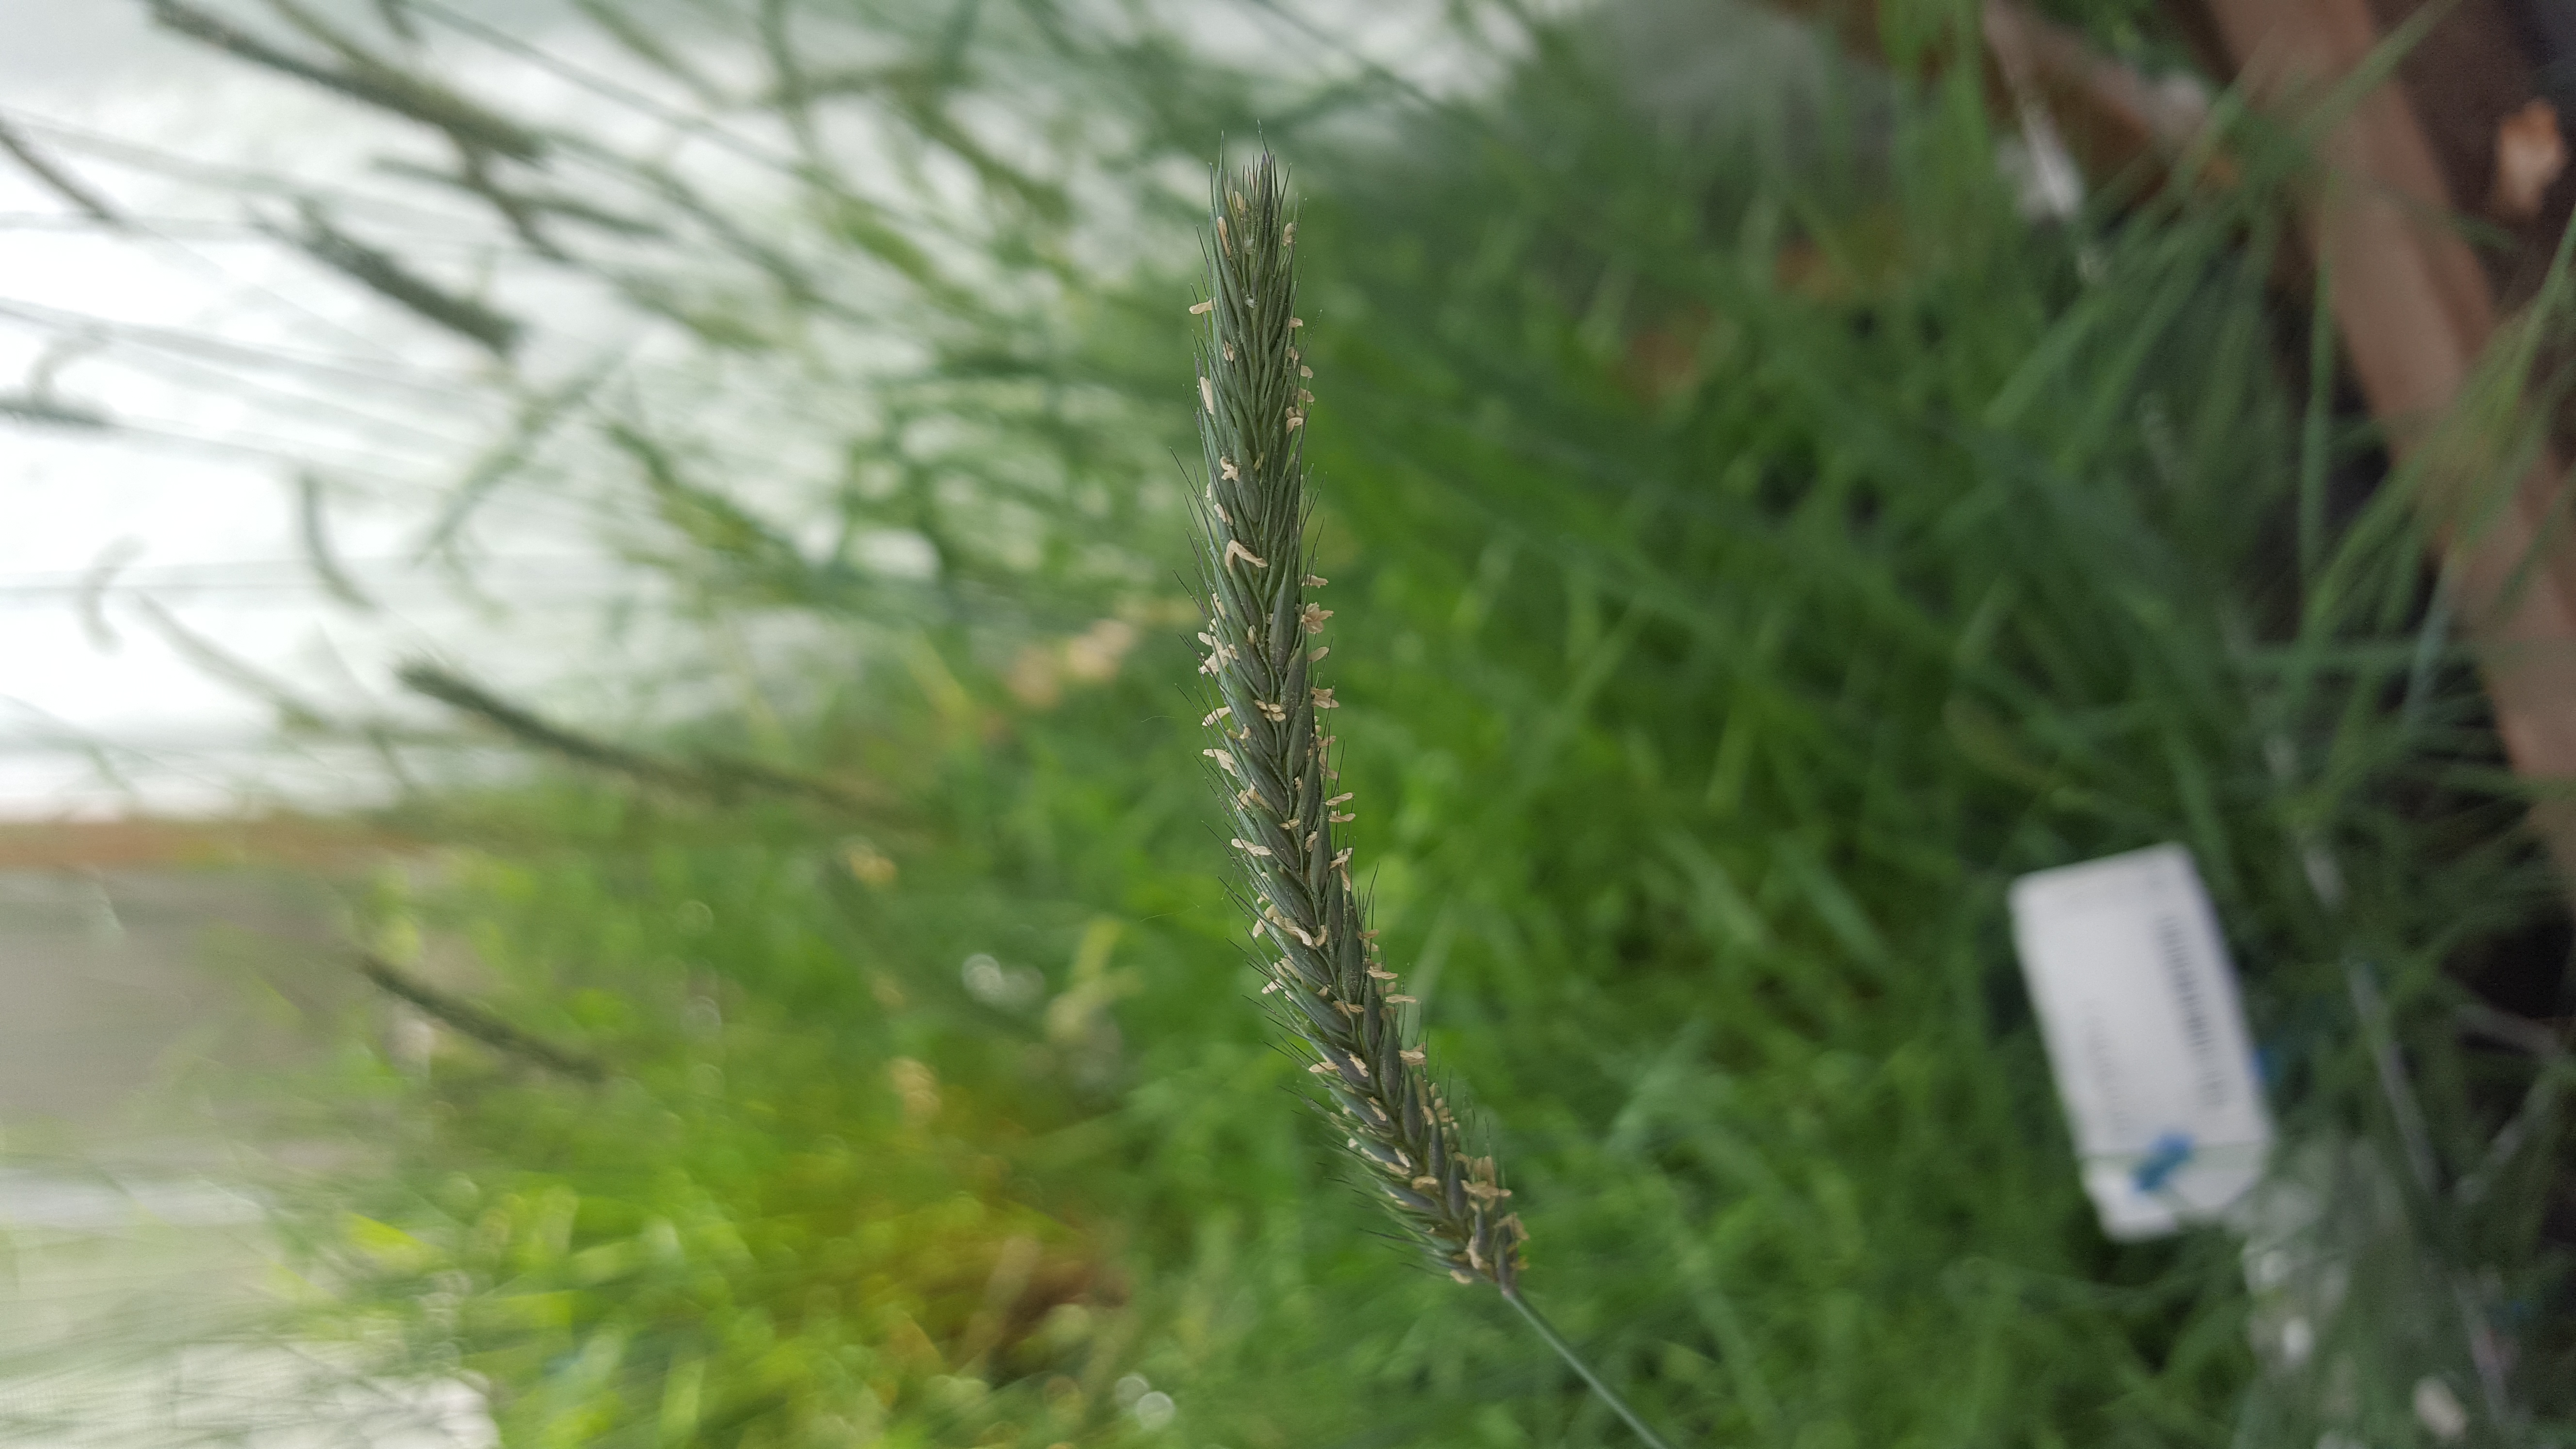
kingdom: Plantae
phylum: Tracheophyta
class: Liliopsida
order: Poales
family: Poaceae
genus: Hordeum
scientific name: Hordeum muticum
